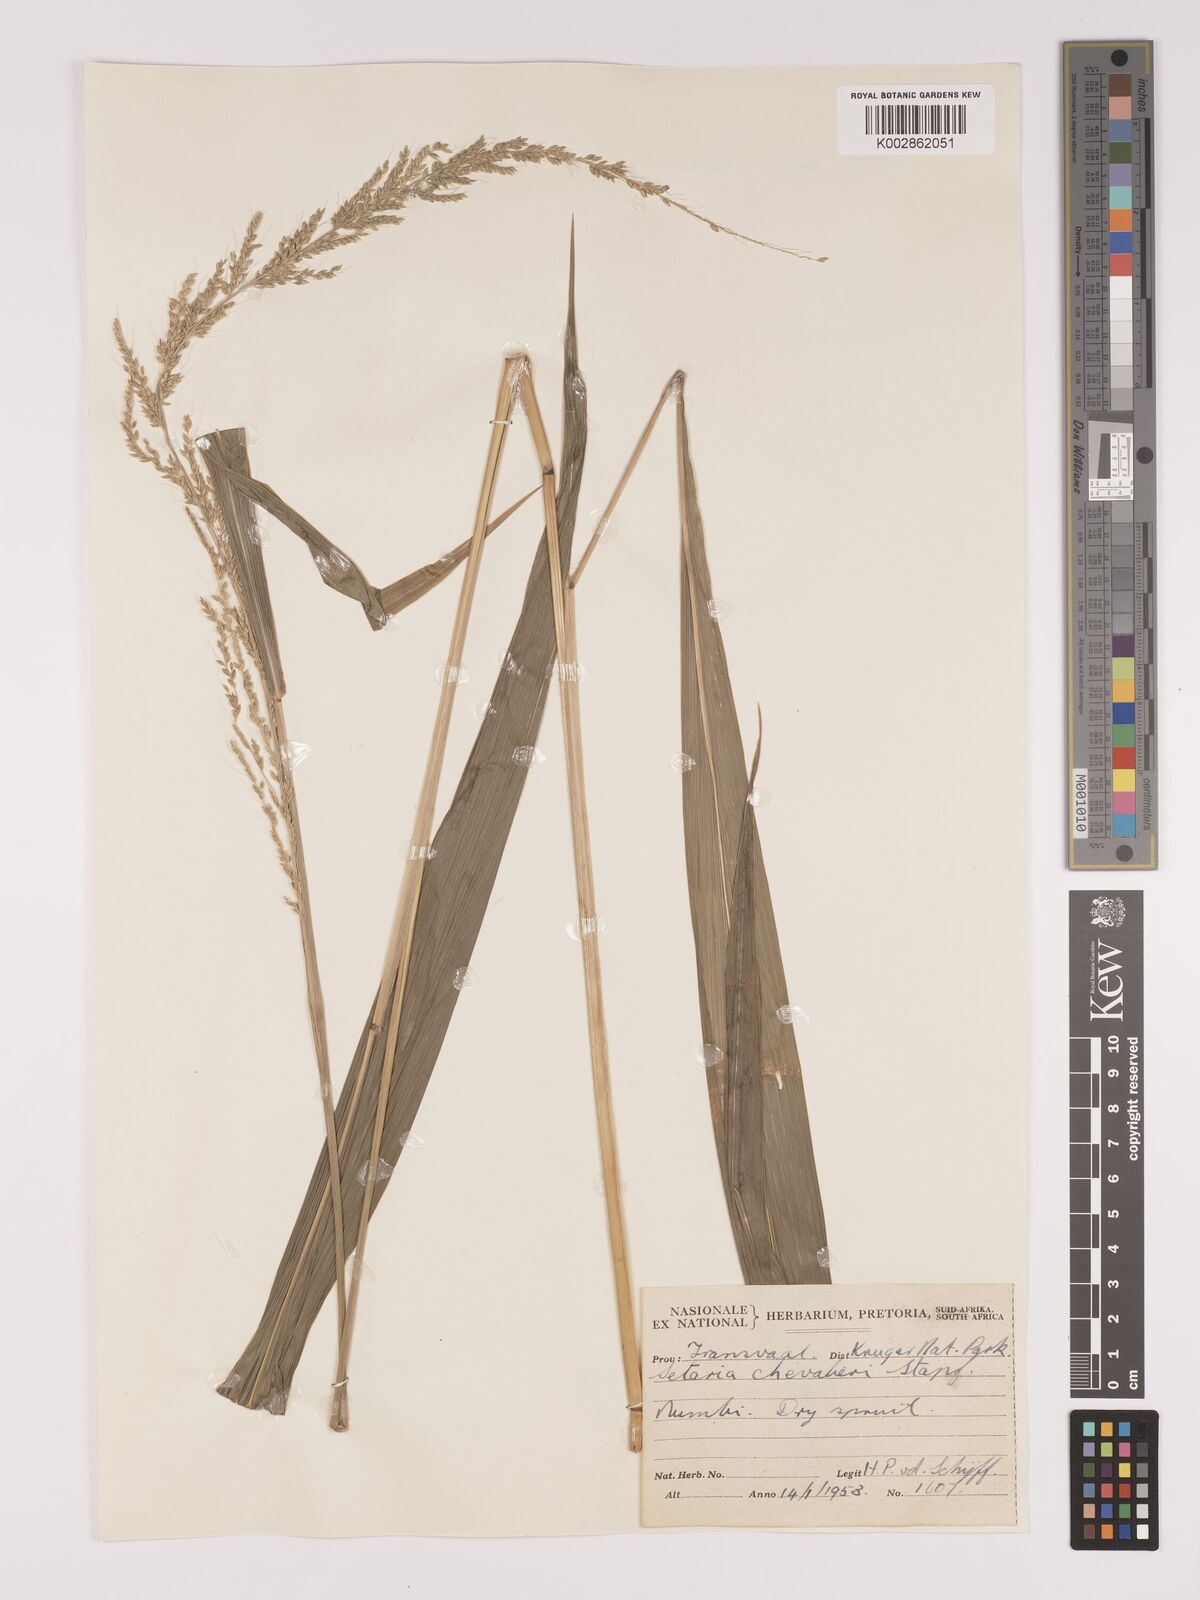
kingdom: Plantae
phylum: Tracheophyta
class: Liliopsida
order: Poales
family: Poaceae
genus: Setaria
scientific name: Setaria megaphylla
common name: Bigleaf bristlegrass
